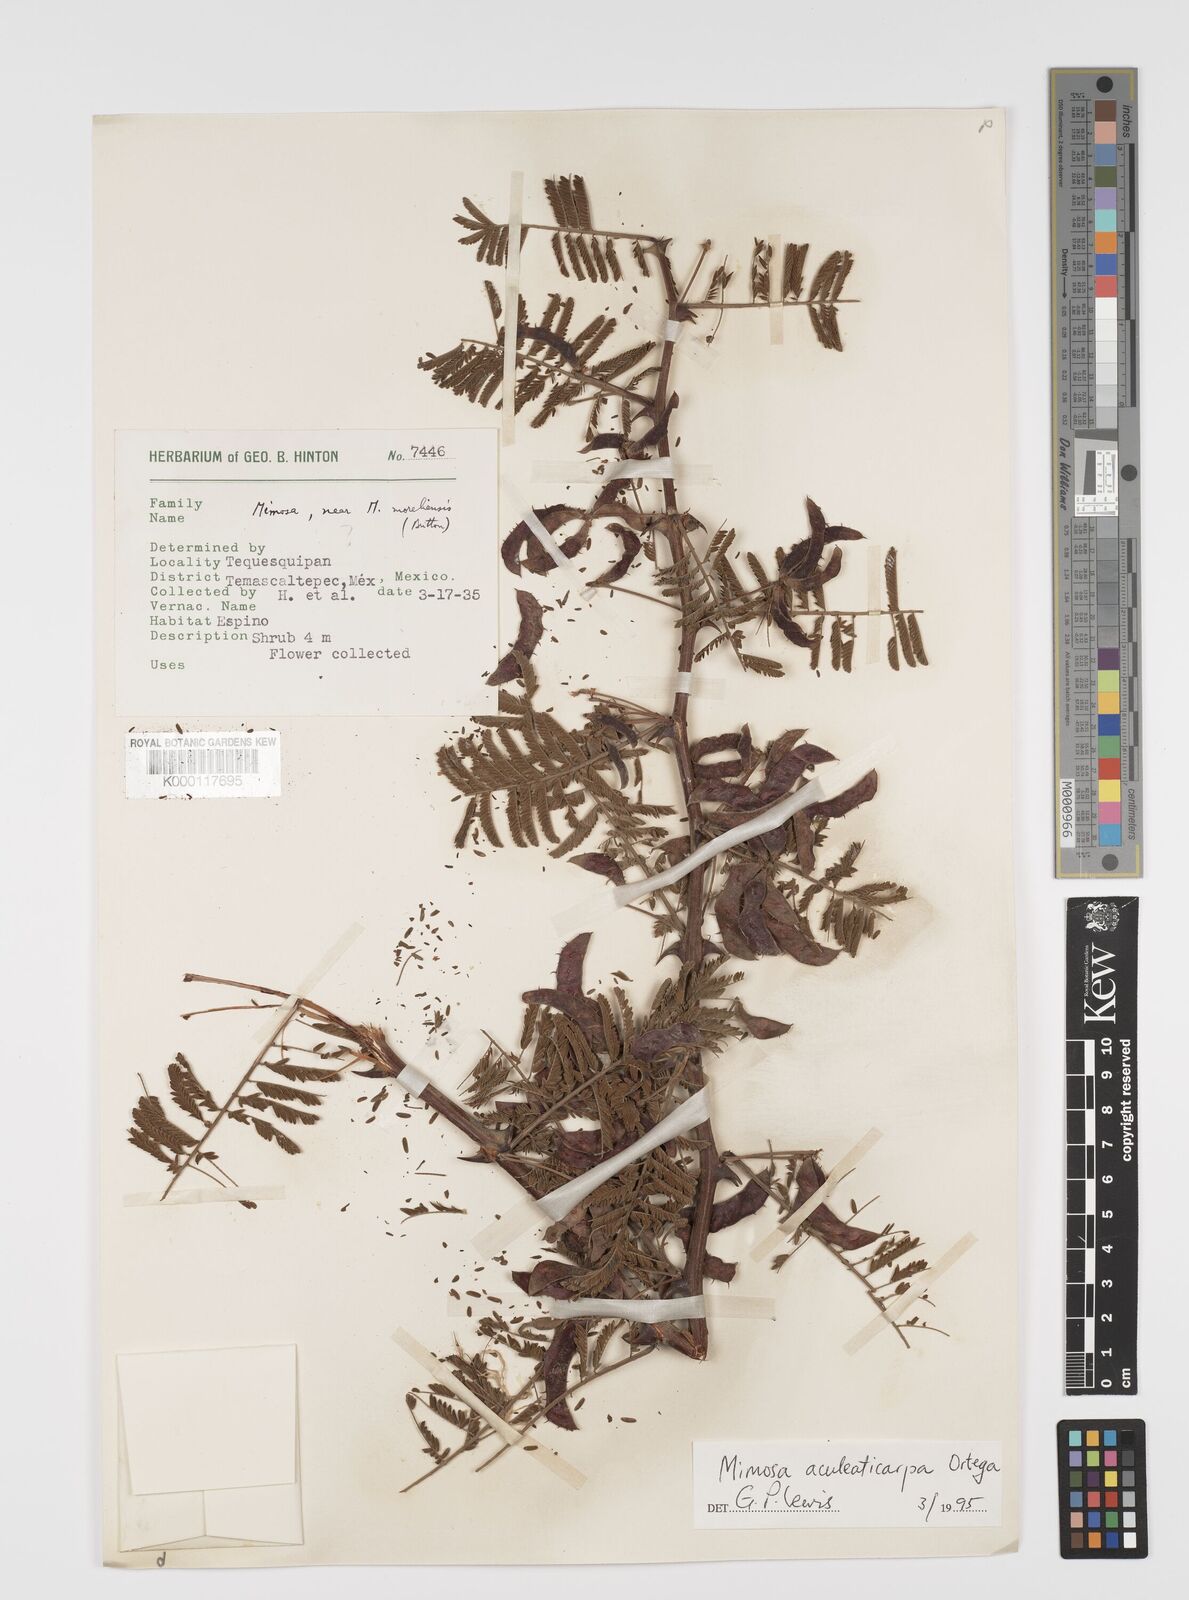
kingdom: Plantae
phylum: Tracheophyta
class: Magnoliopsida
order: Fabales
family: Fabaceae
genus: Mimosa
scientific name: Mimosa aculeaticarpa
